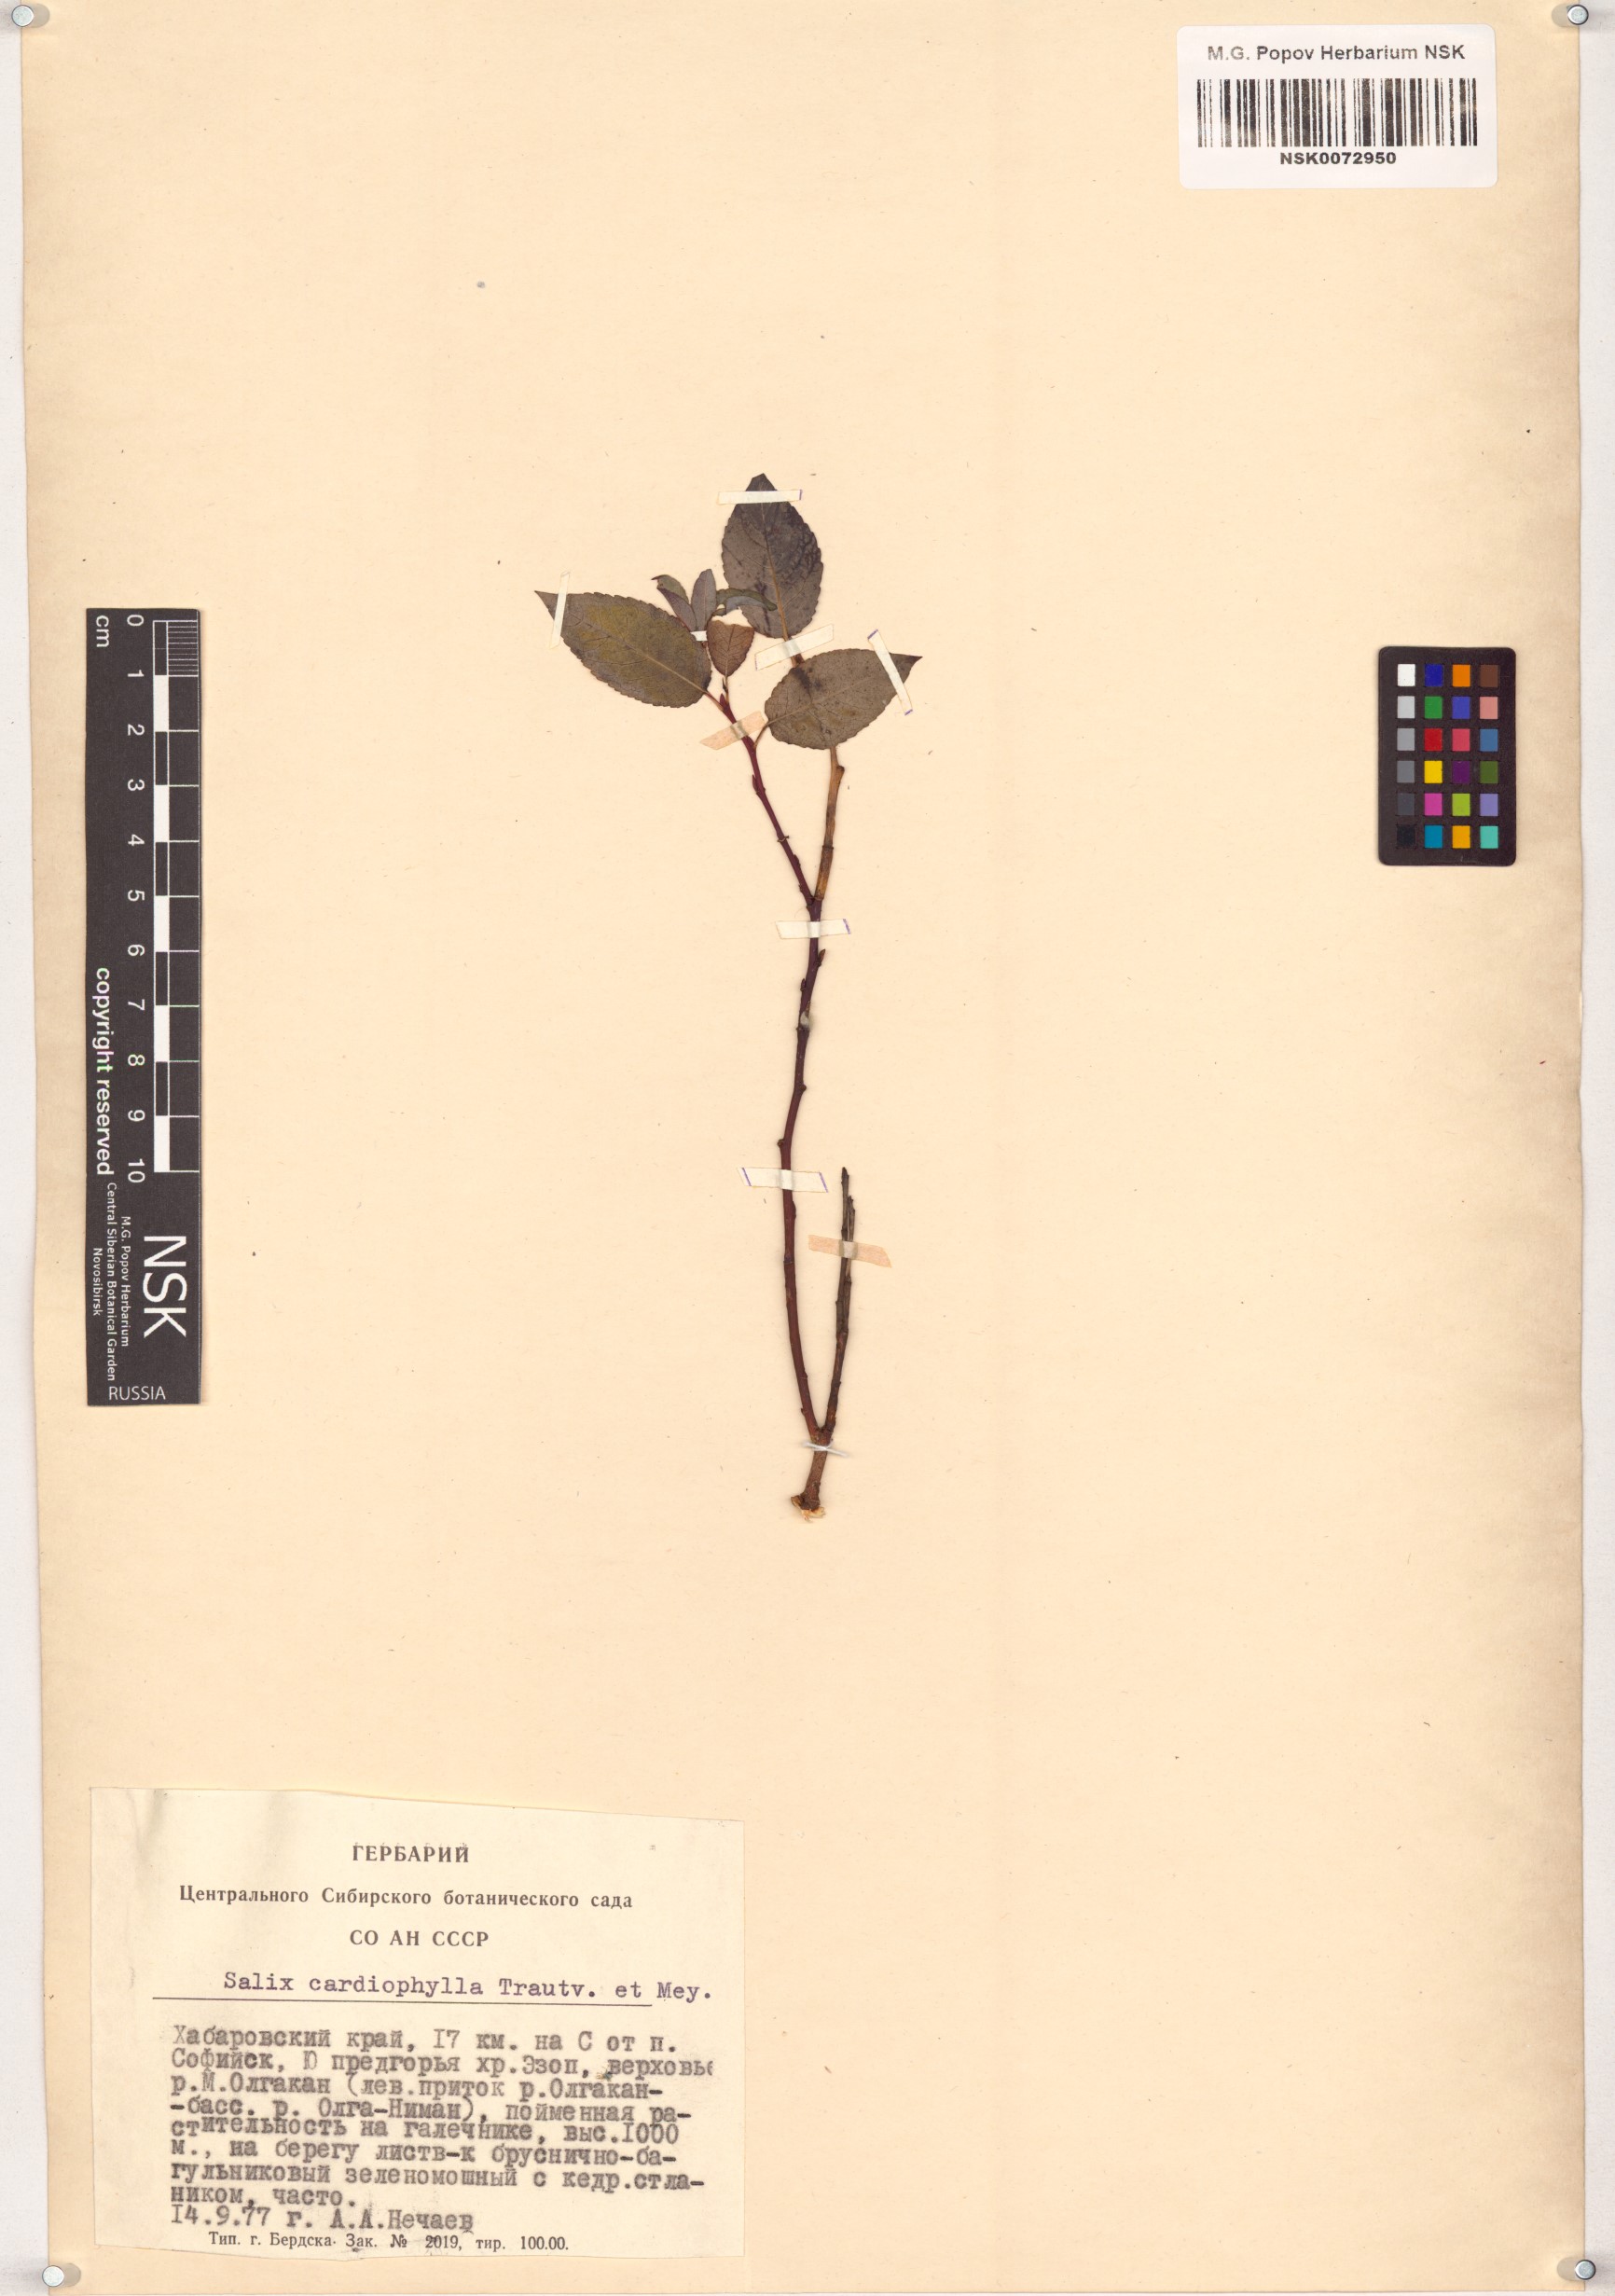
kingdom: Plantae
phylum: Tracheophyta
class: Magnoliopsida
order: Malpighiales
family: Salicaceae
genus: Chosenia
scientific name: Chosenia cardiophylla
